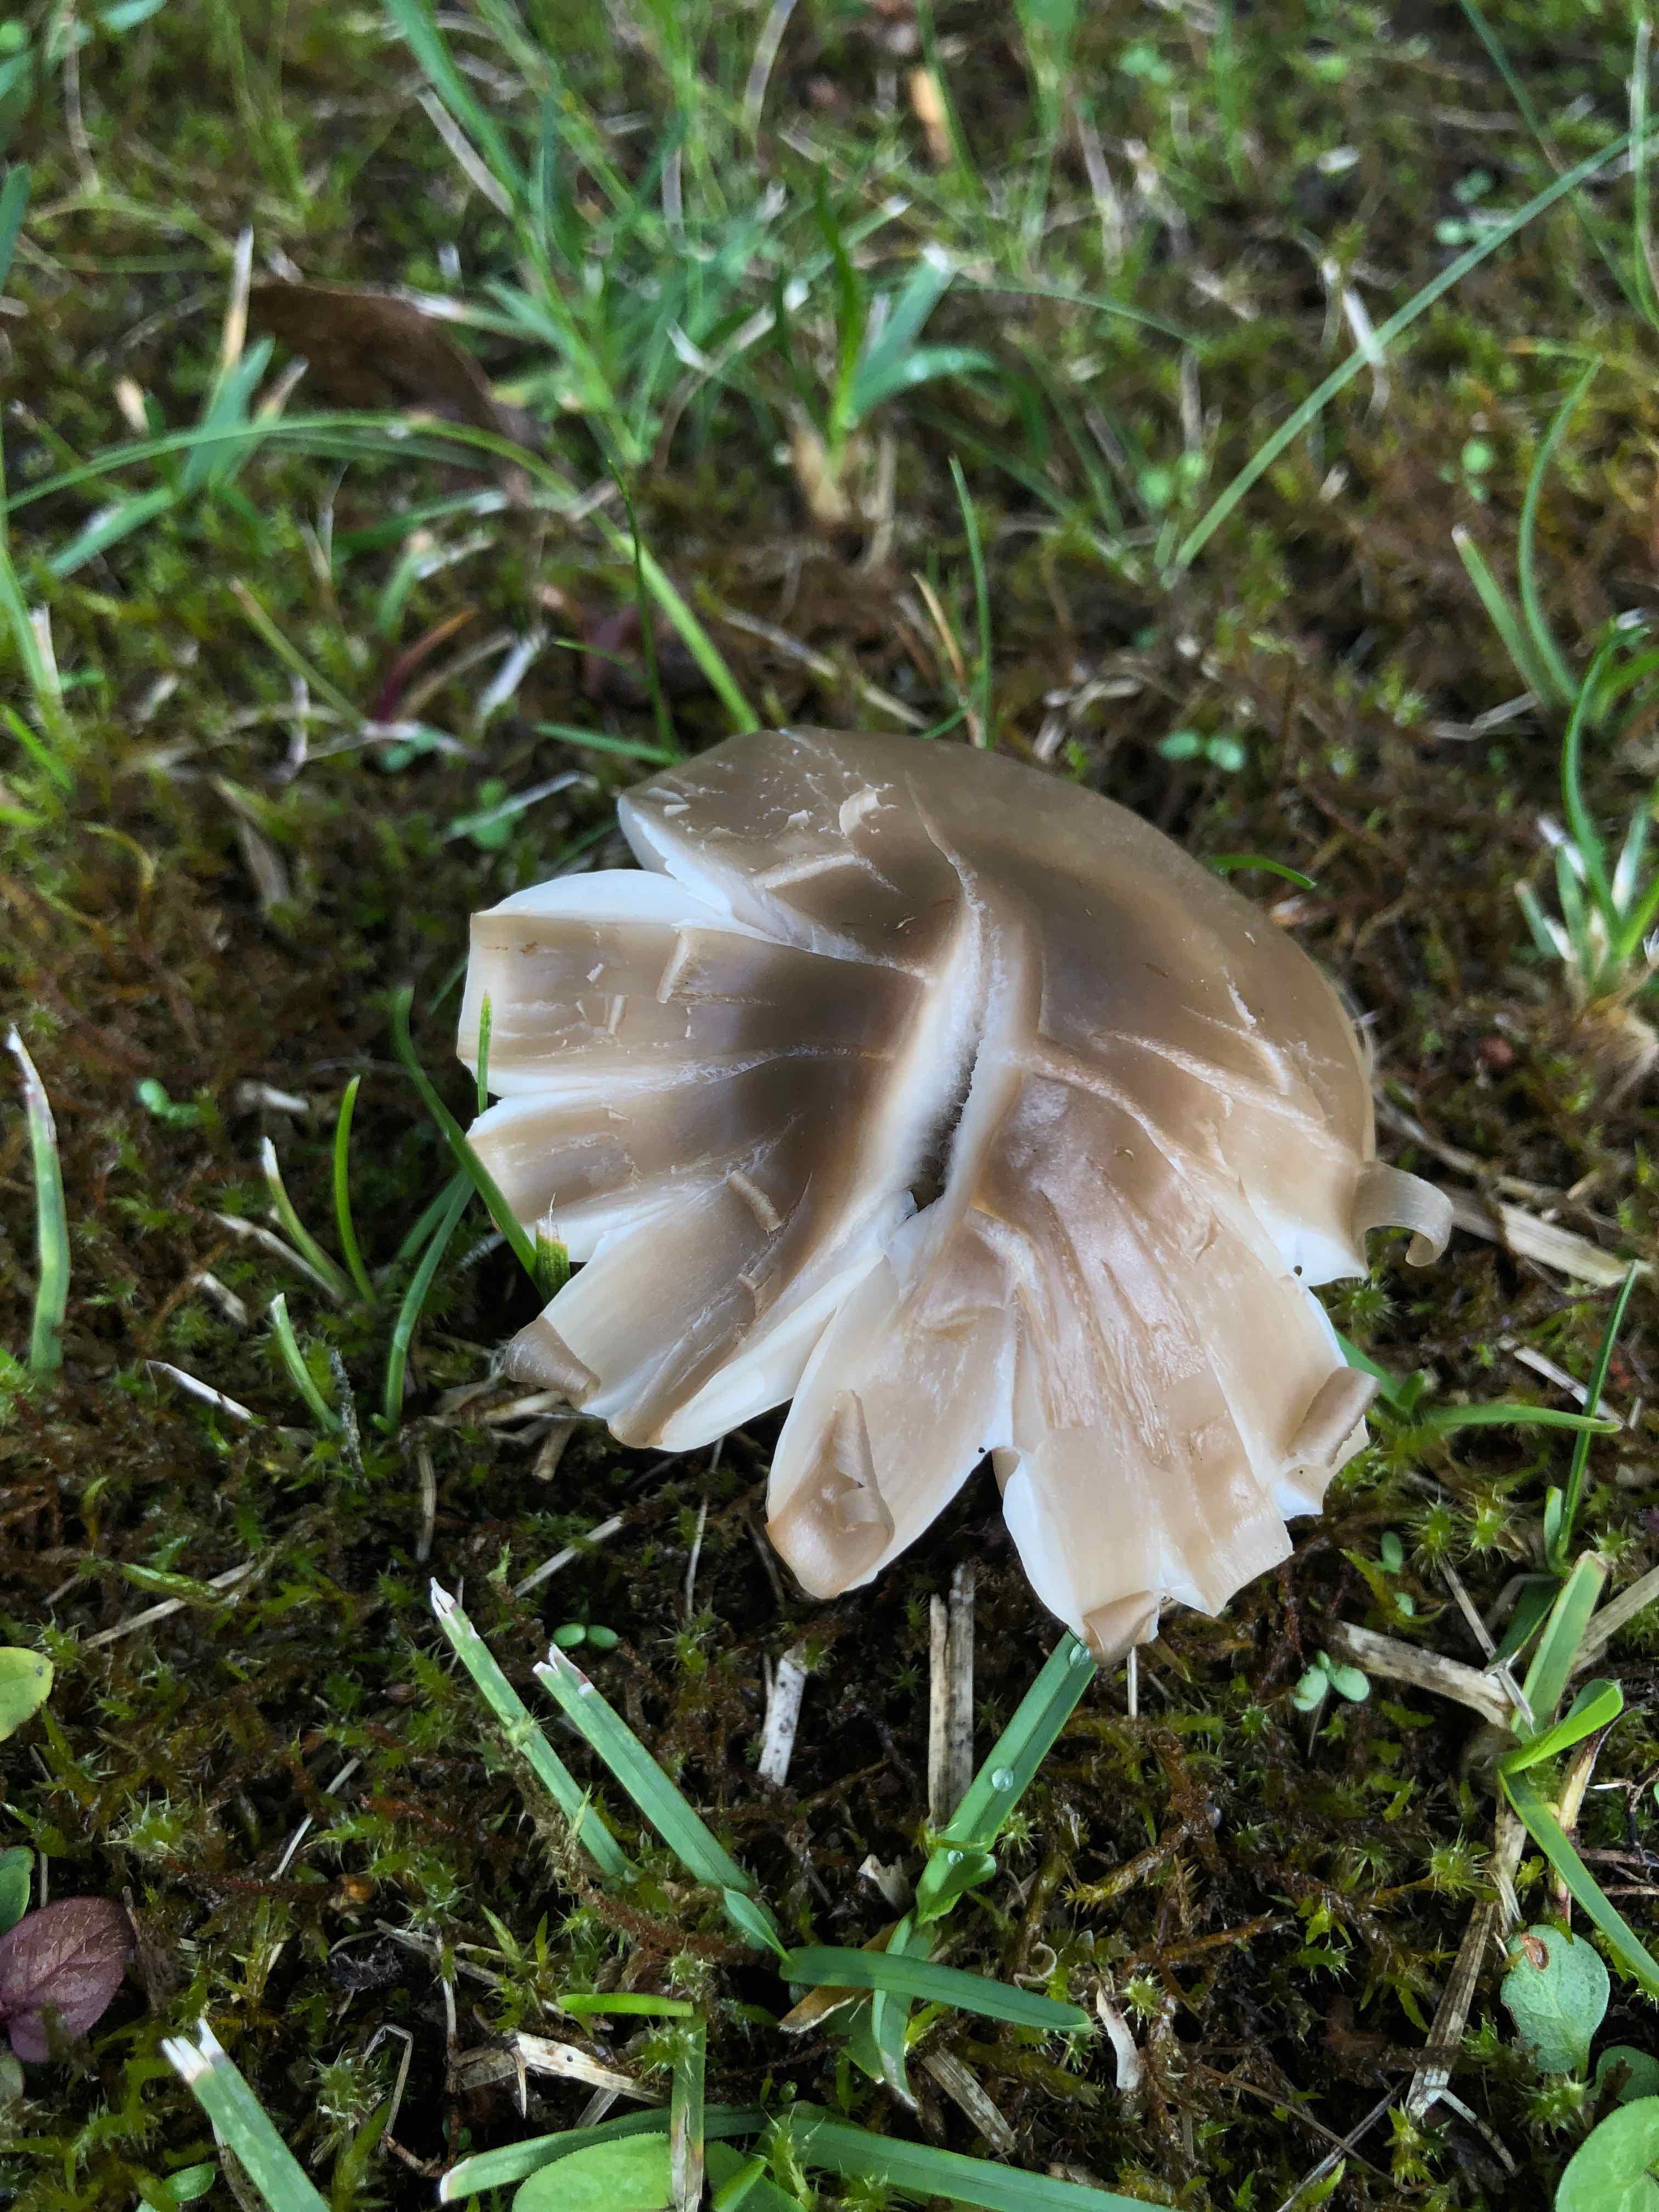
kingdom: Fungi
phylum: Basidiomycota
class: Agaricomycetes
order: Agaricales
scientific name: Agaricales
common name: champignonordenen
